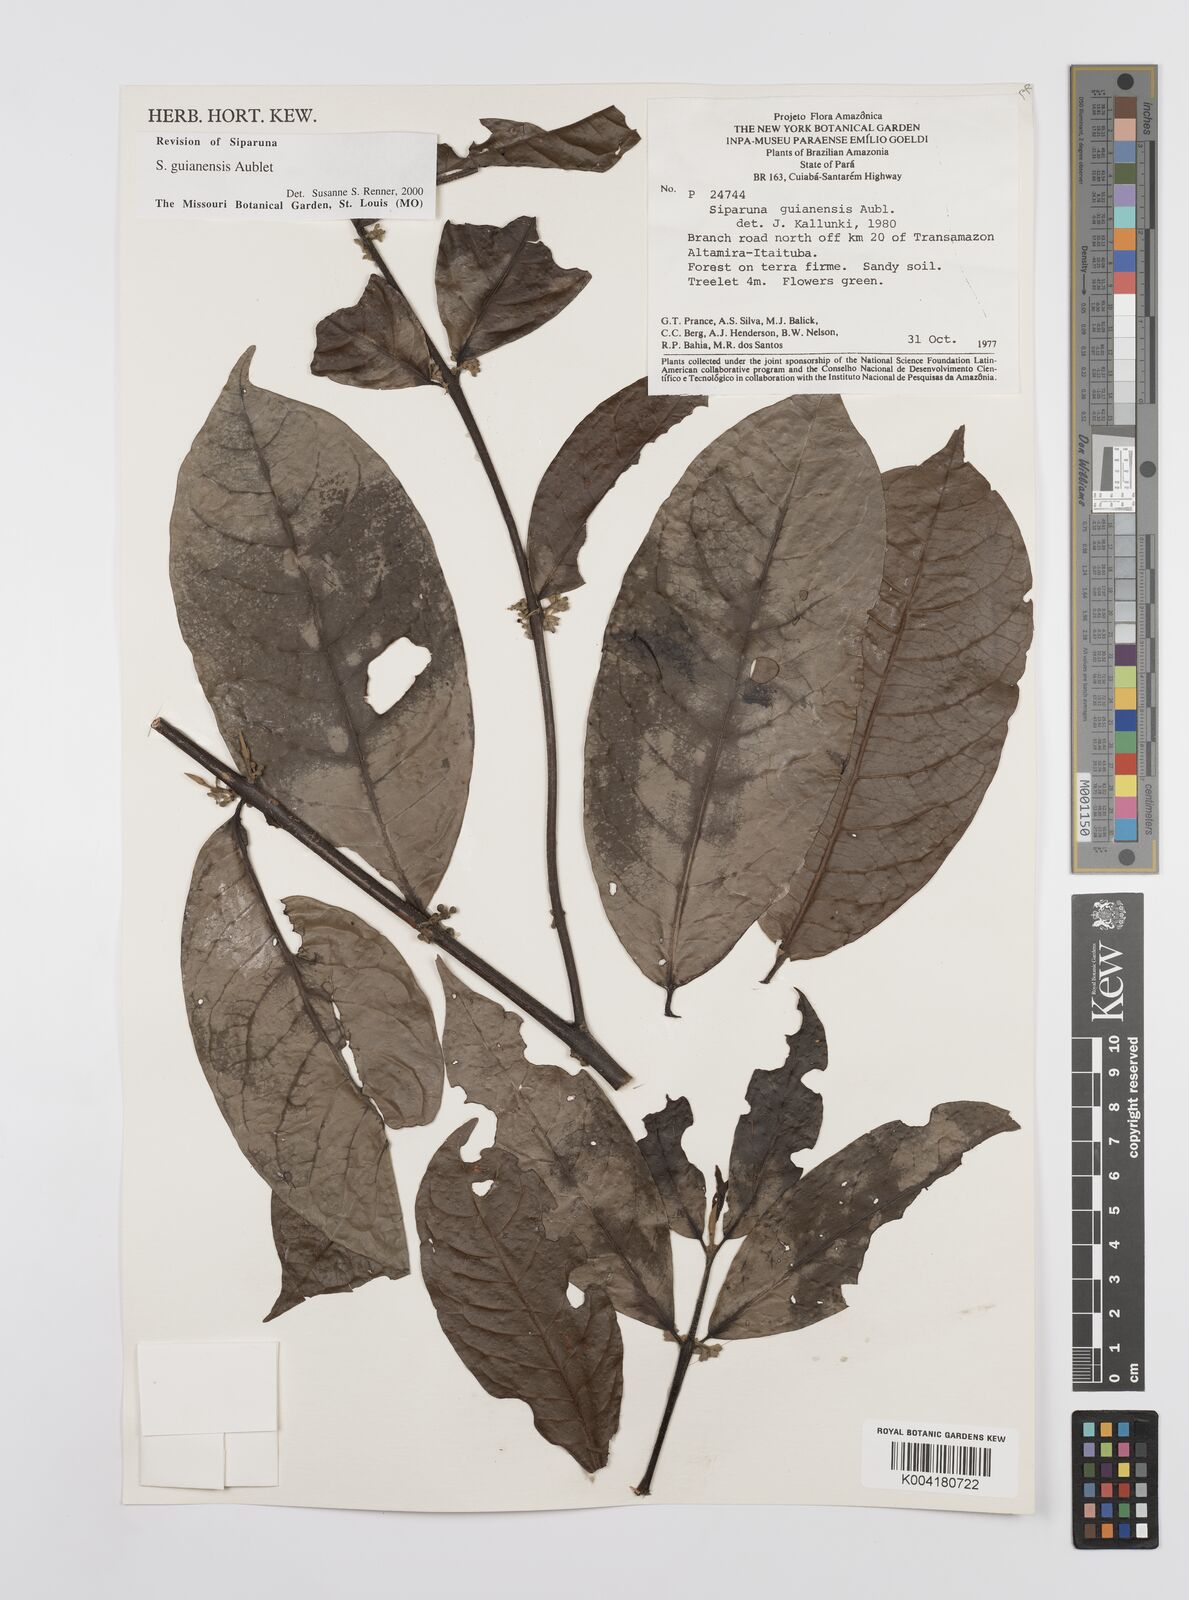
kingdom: Plantae
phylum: Tracheophyta
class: Magnoliopsida
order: Laurales
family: Siparunaceae
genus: Siparuna
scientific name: Siparuna guianensis
